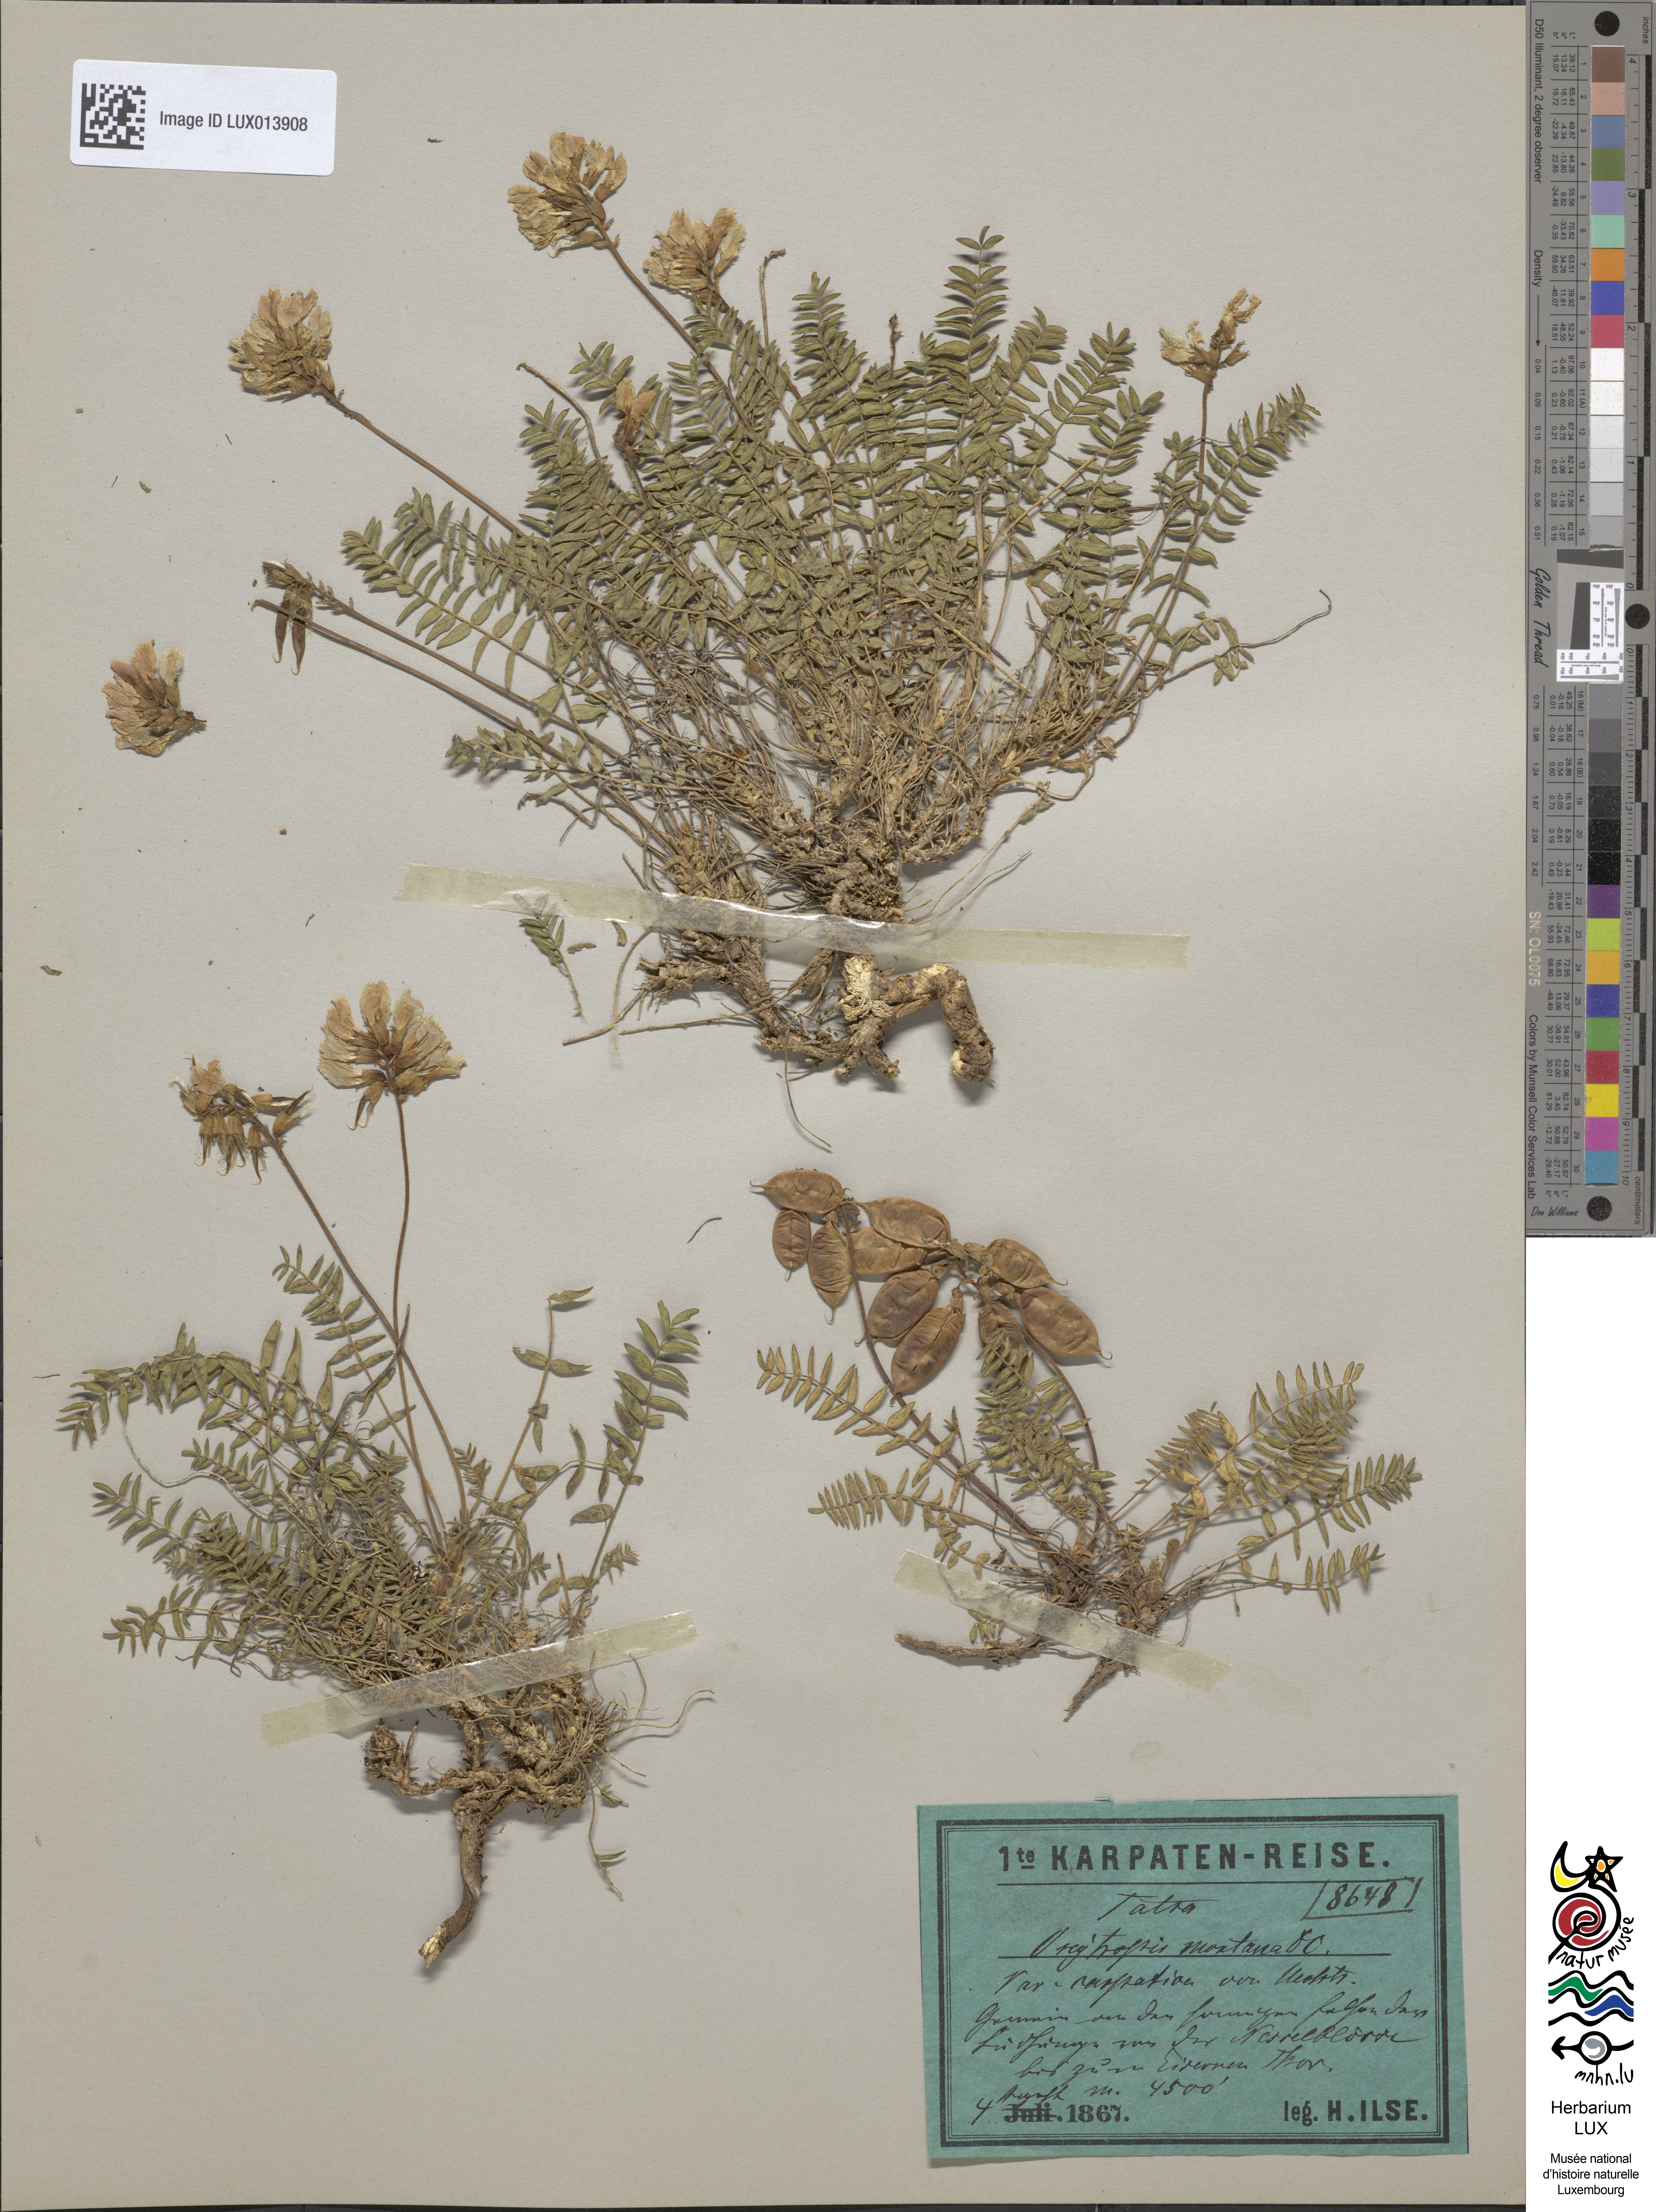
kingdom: Plantae
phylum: Tracheophyta
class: Magnoliopsida
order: Fabales
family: Fabaceae
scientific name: Fabaceae
